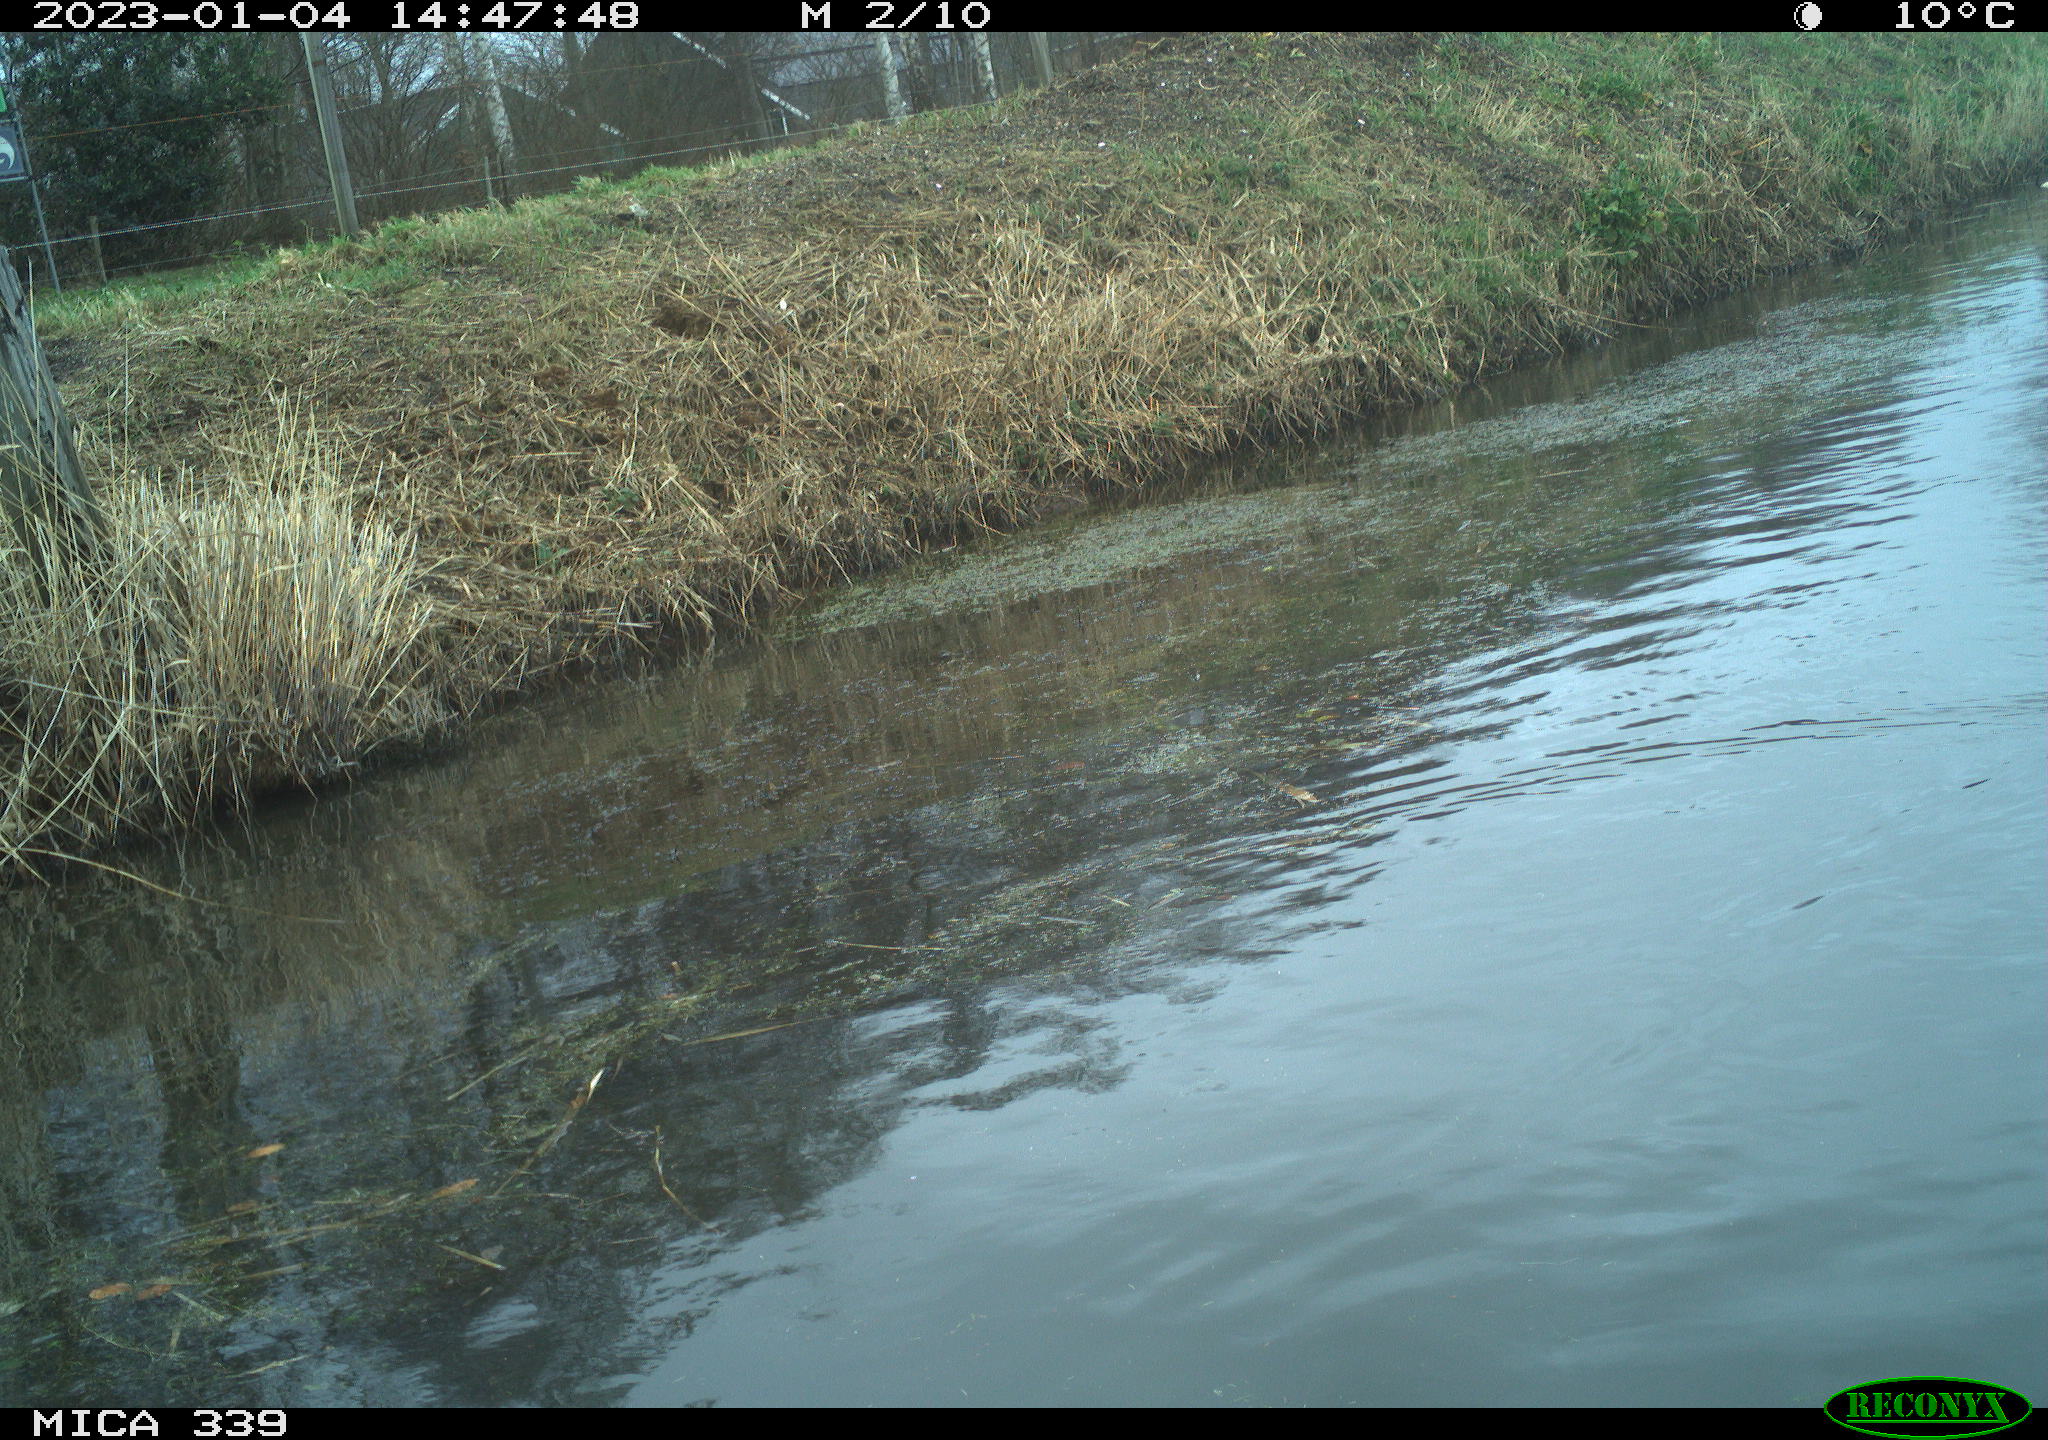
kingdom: Animalia
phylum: Chordata
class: Aves
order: Anseriformes
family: Anatidae
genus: Anas
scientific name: Anas
